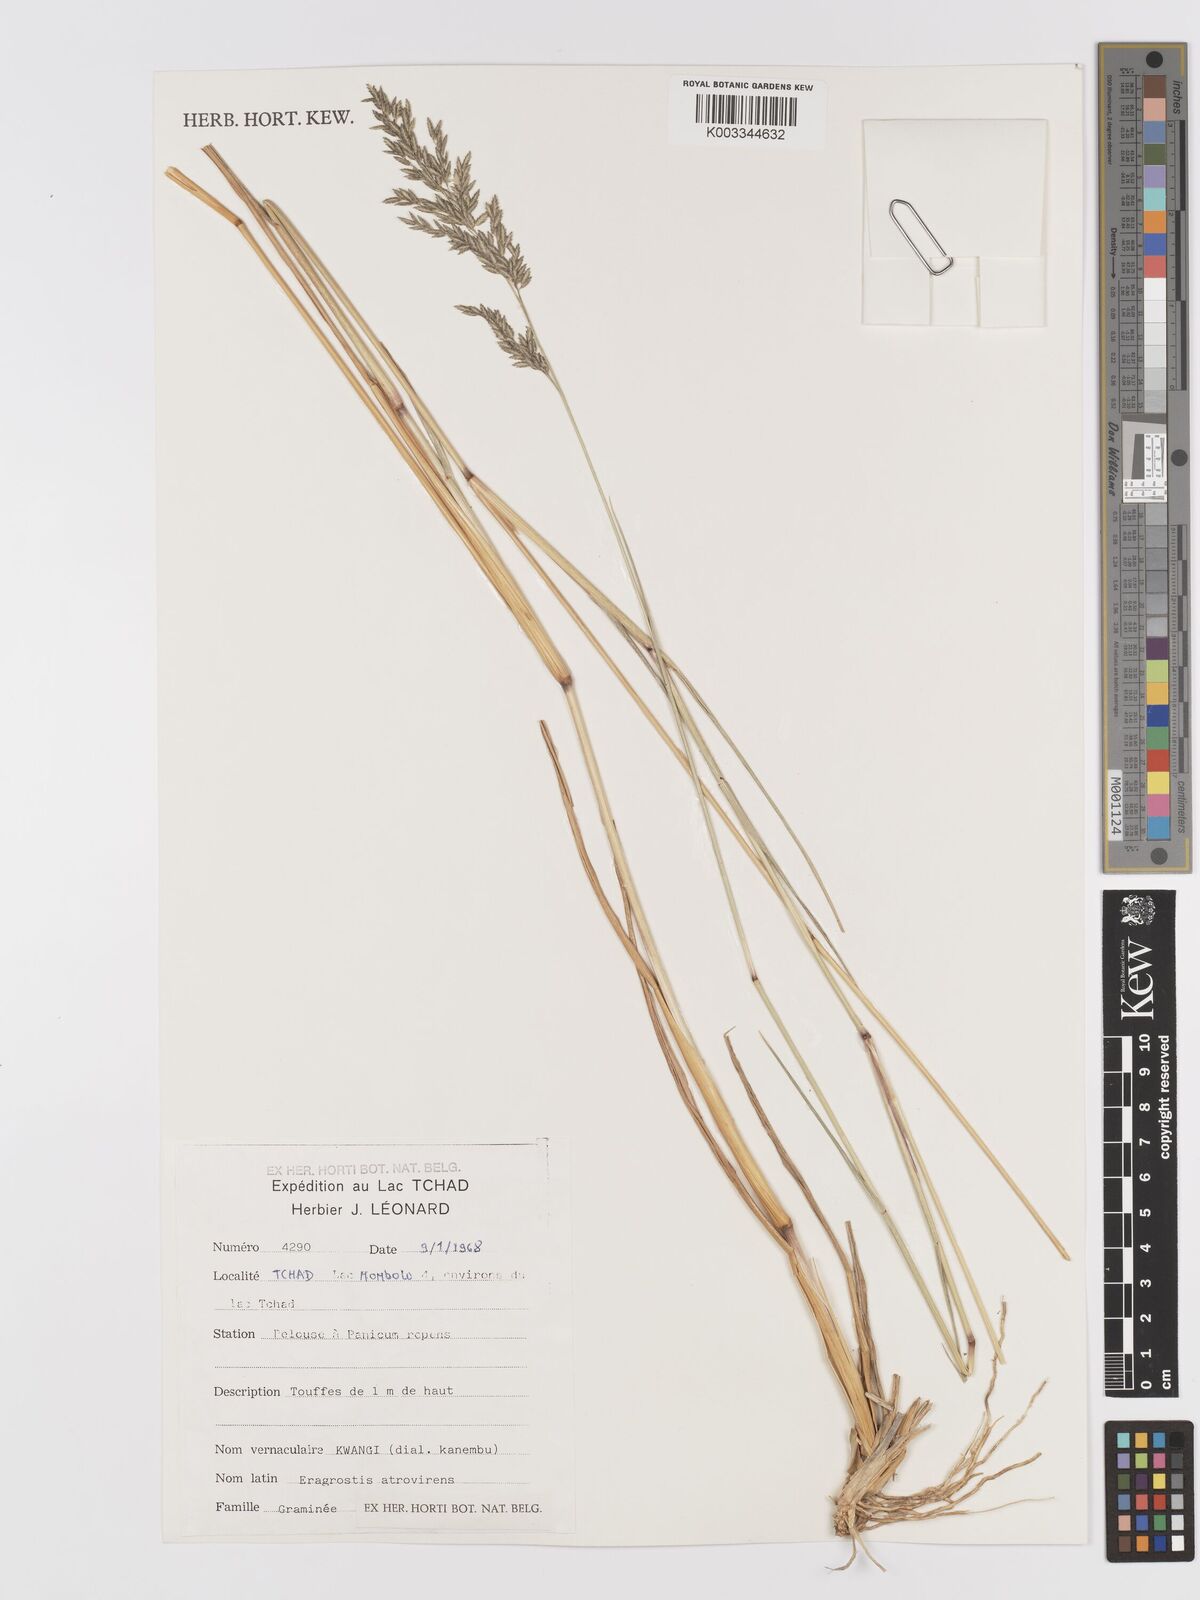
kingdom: Plantae
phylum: Tracheophyta
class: Liliopsida
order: Poales
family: Poaceae
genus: Eragrostis
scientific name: Eragrostis
